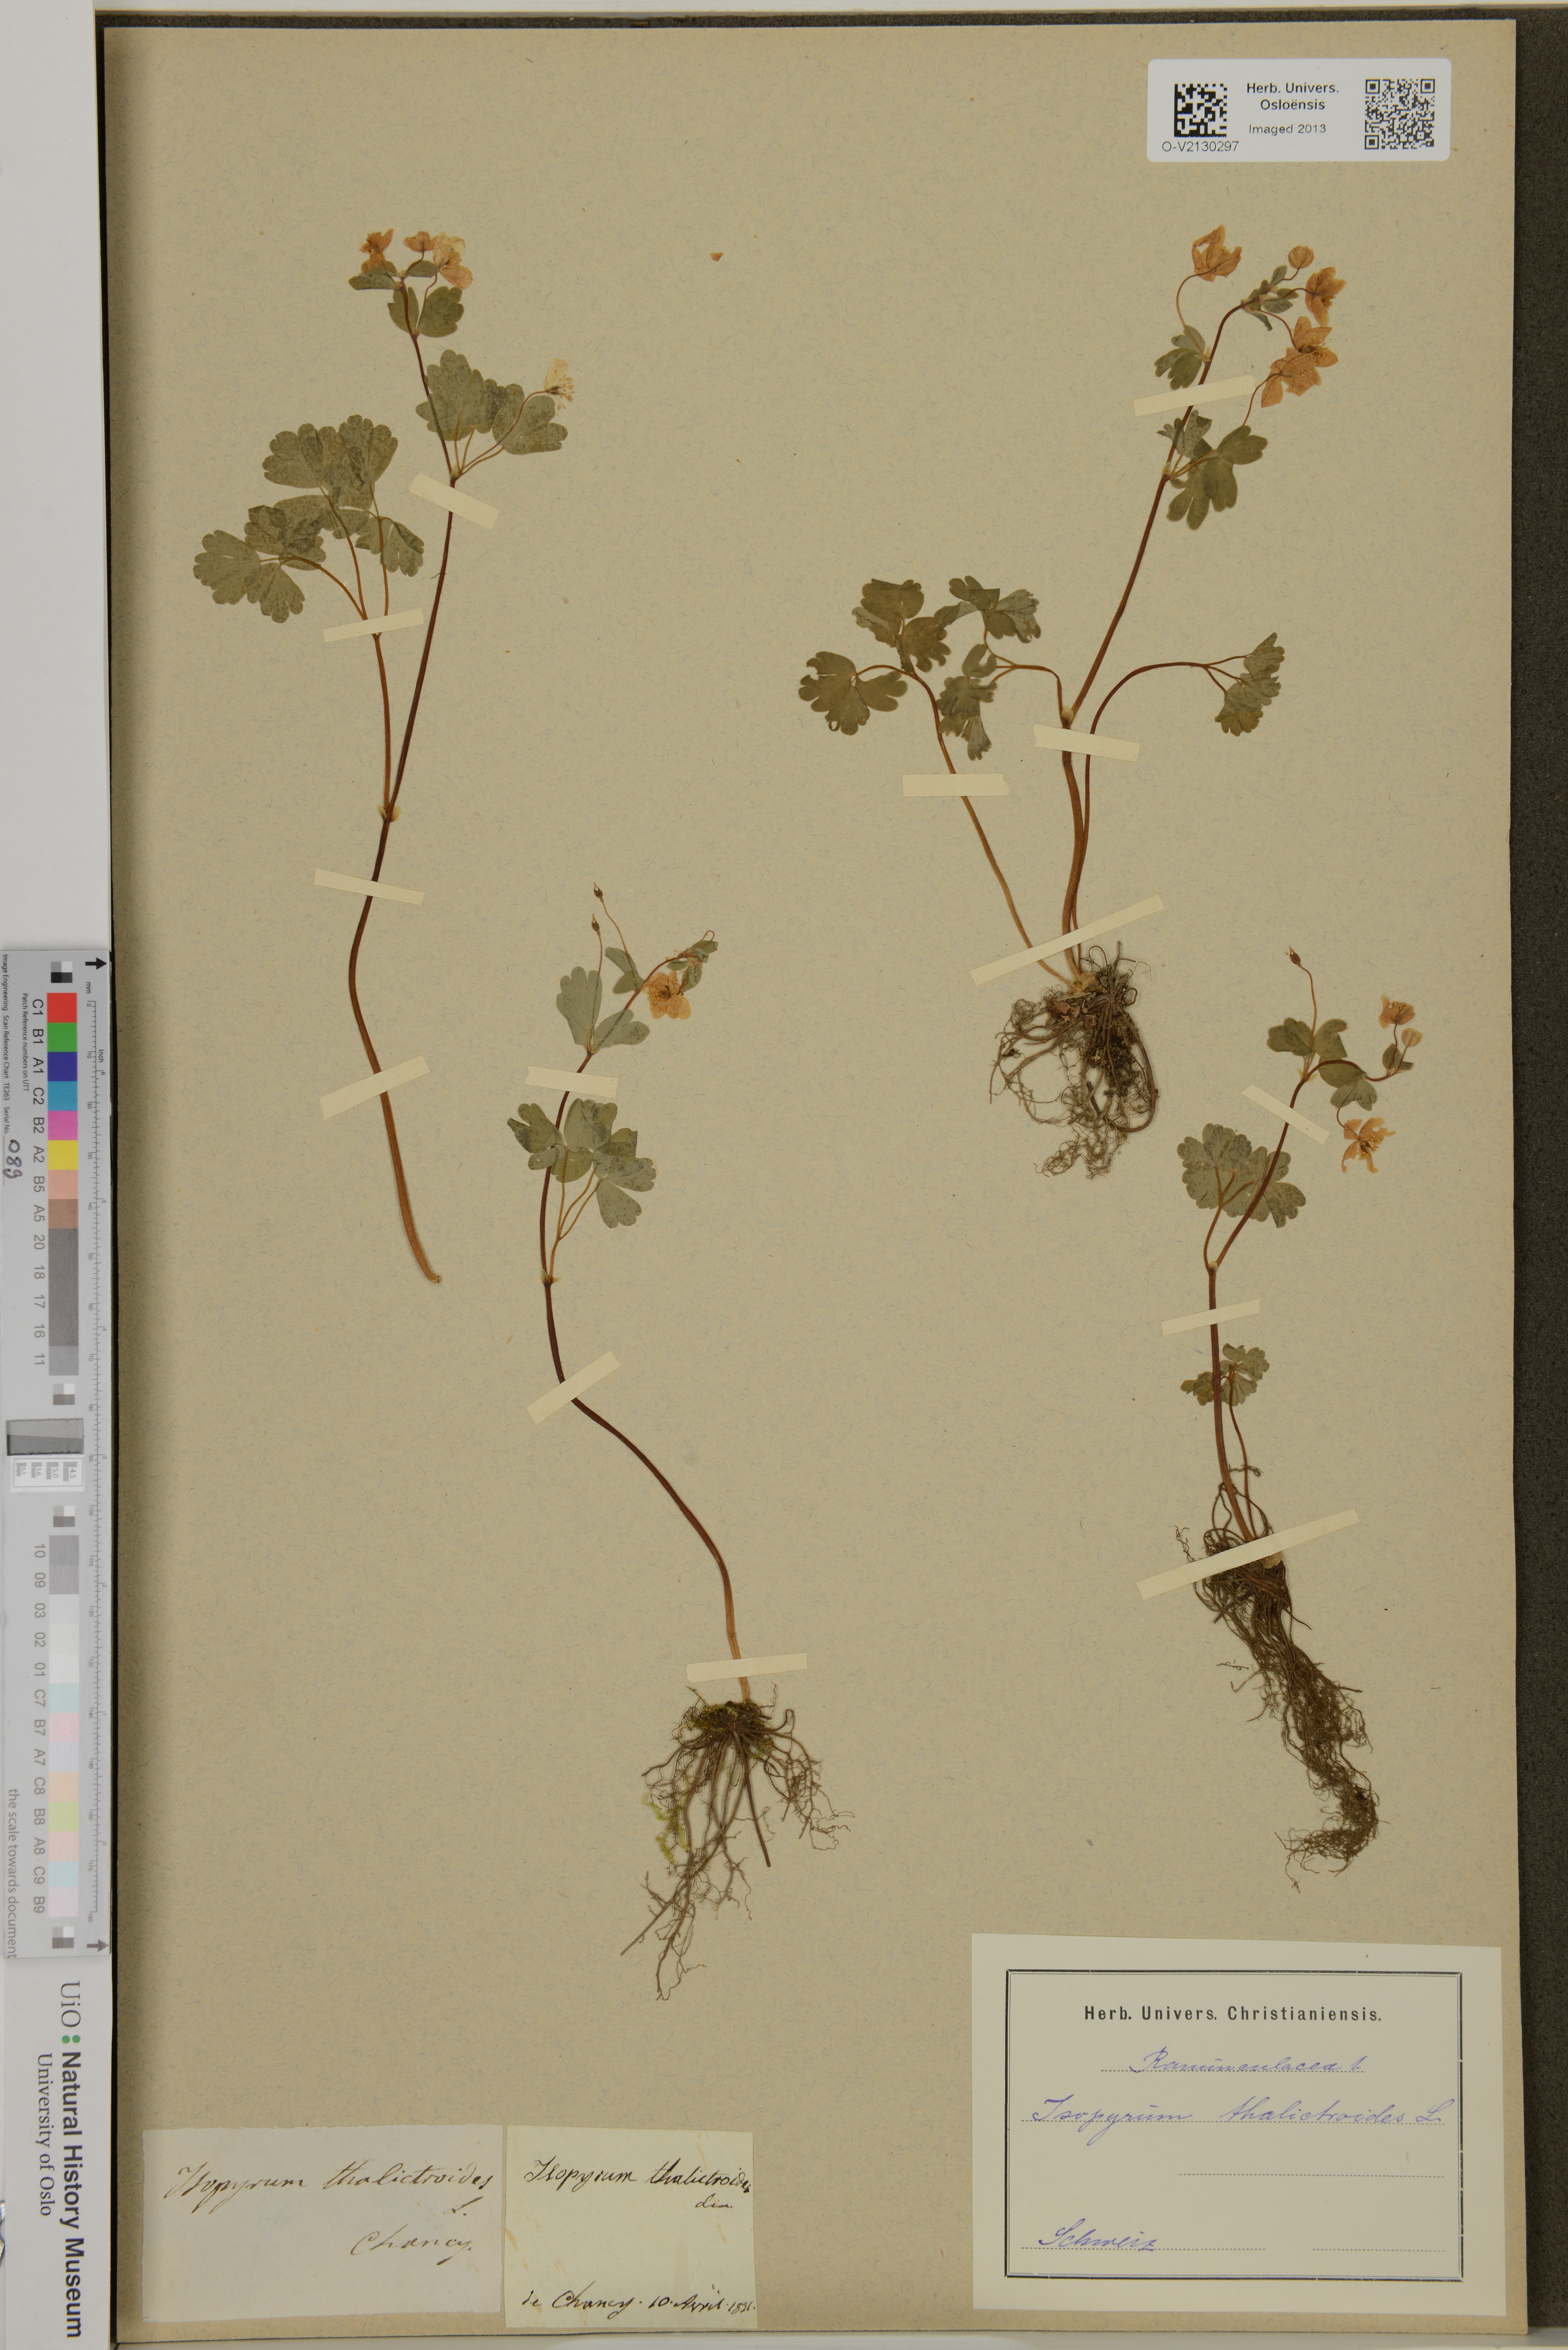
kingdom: Plantae
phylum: Tracheophyta
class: Magnoliopsida
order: Ranunculales
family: Ranunculaceae
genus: Isopyrum
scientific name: Isopyrum thalictroides
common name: Isopyrum
